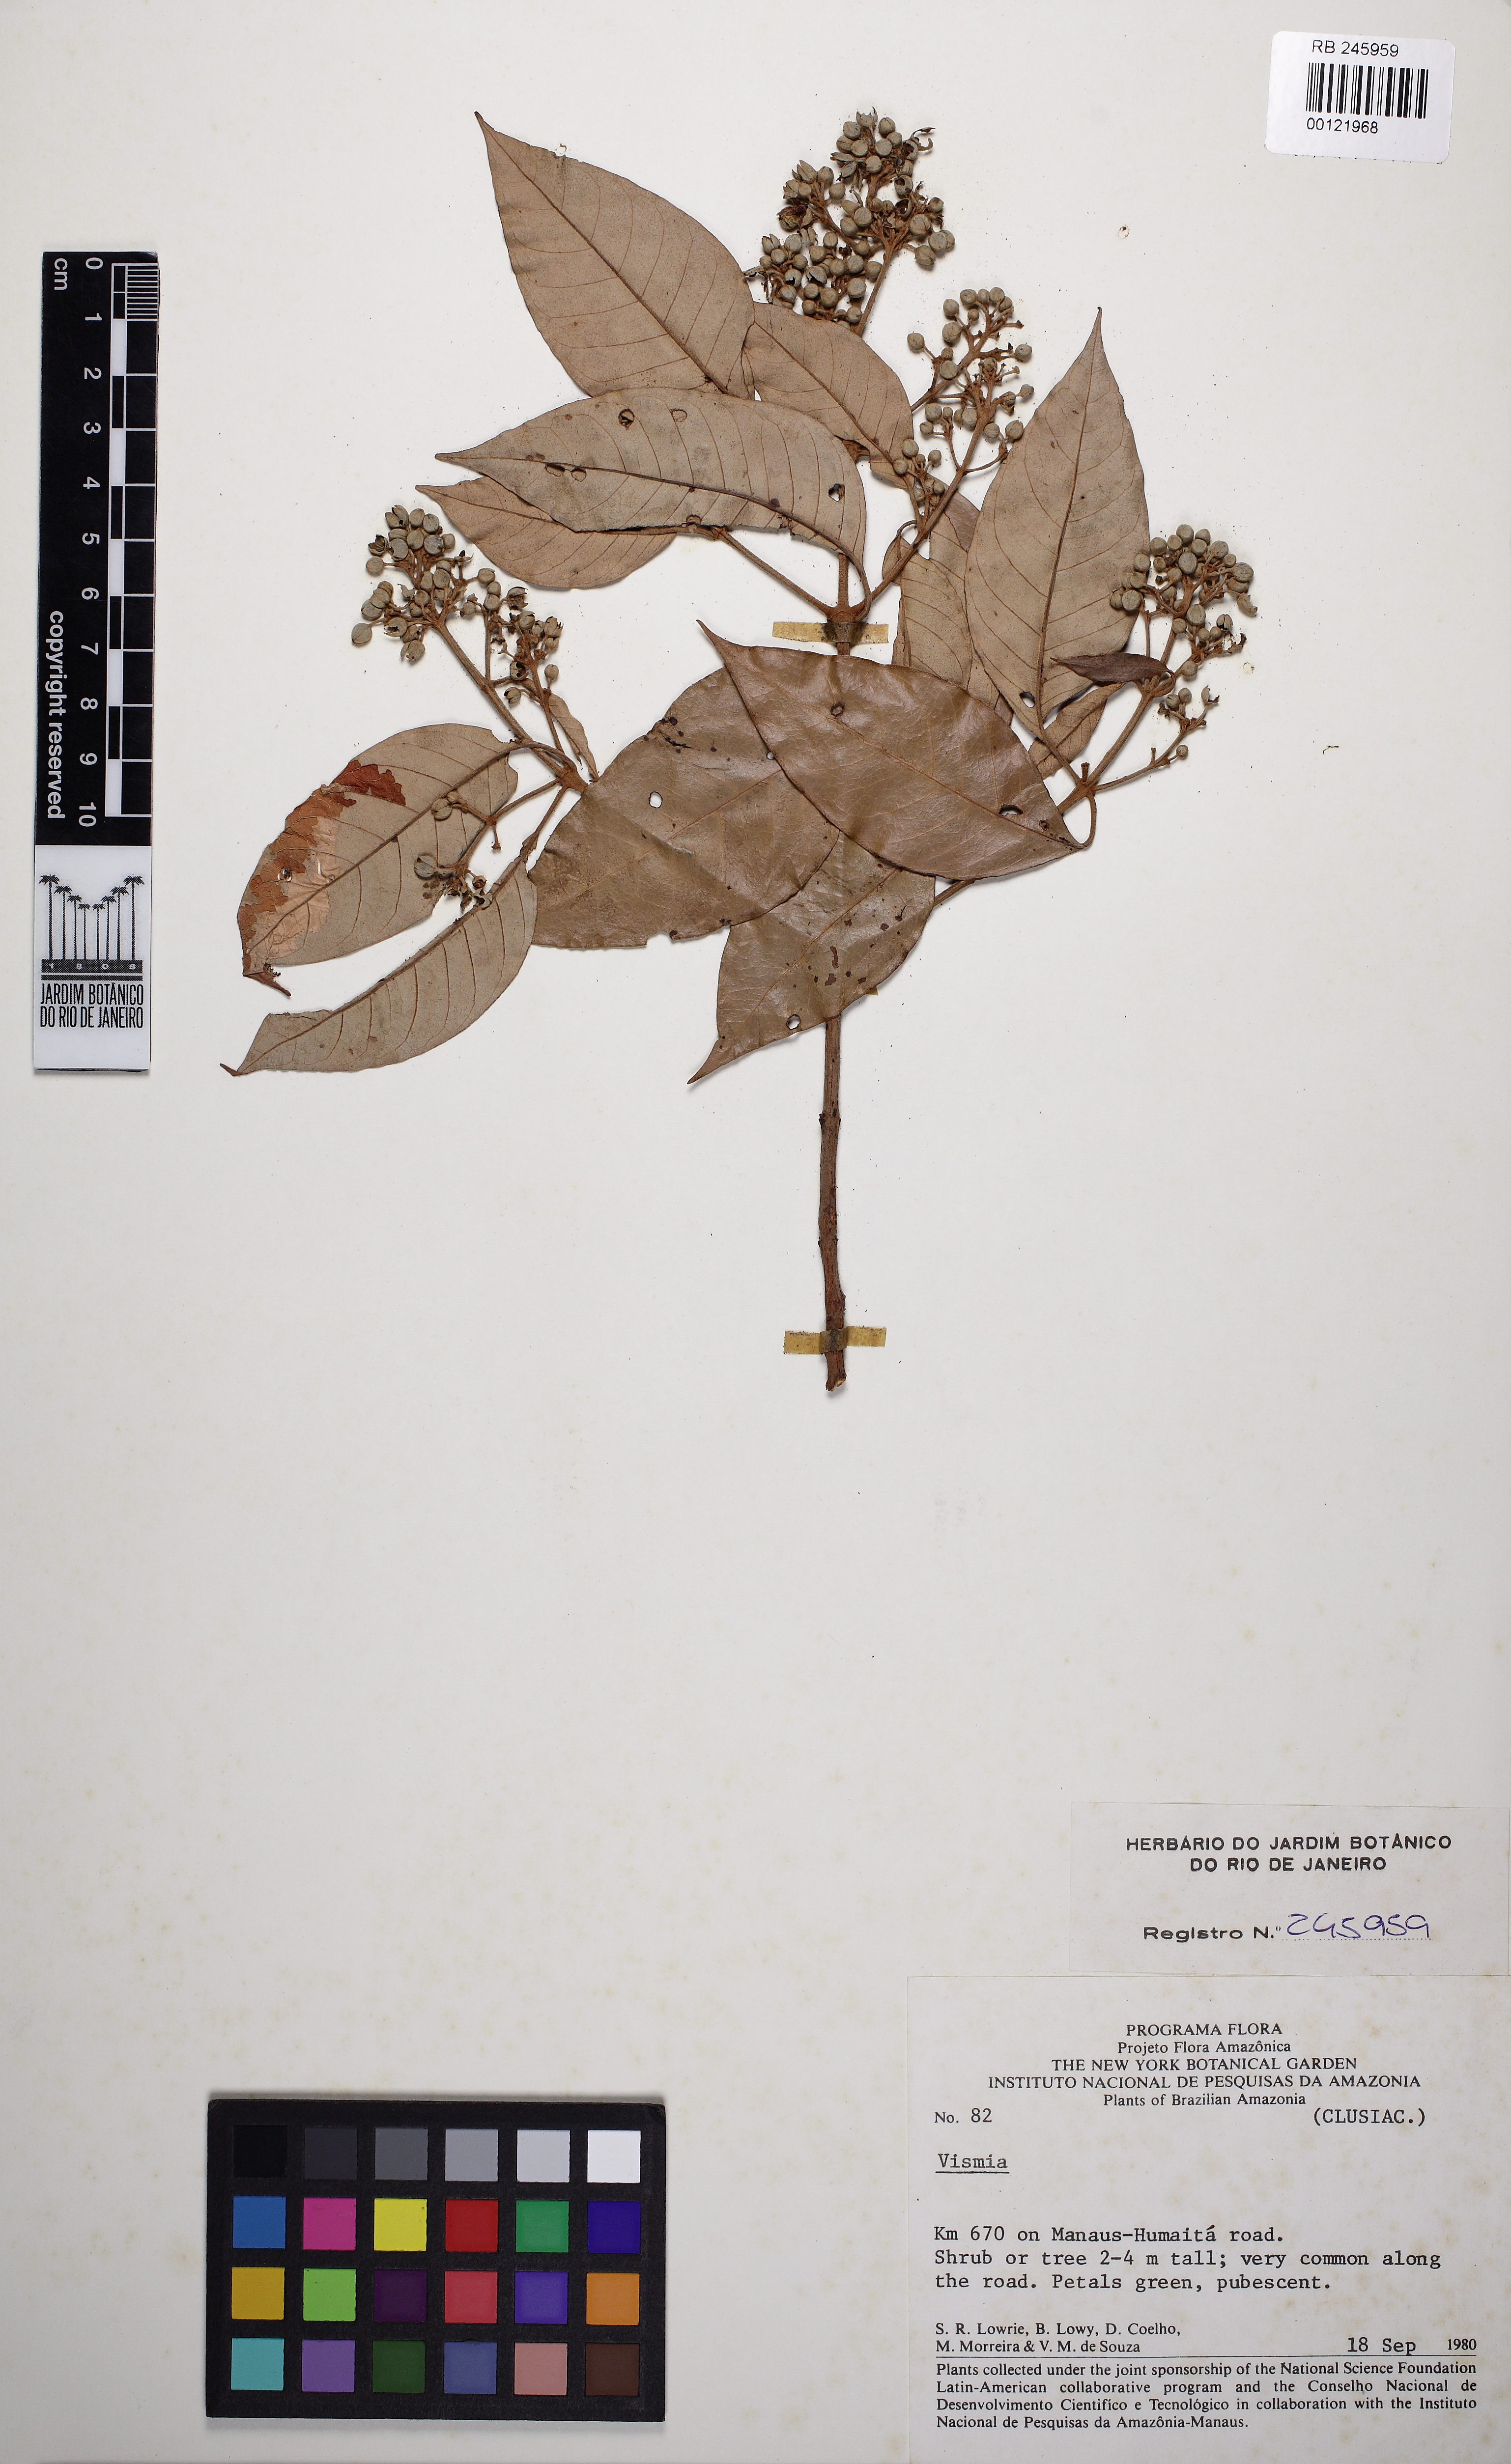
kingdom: Plantae
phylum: Tracheophyta
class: Magnoliopsida
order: Malpighiales
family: Hypericaceae
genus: Vismia
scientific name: Vismia gracilis
